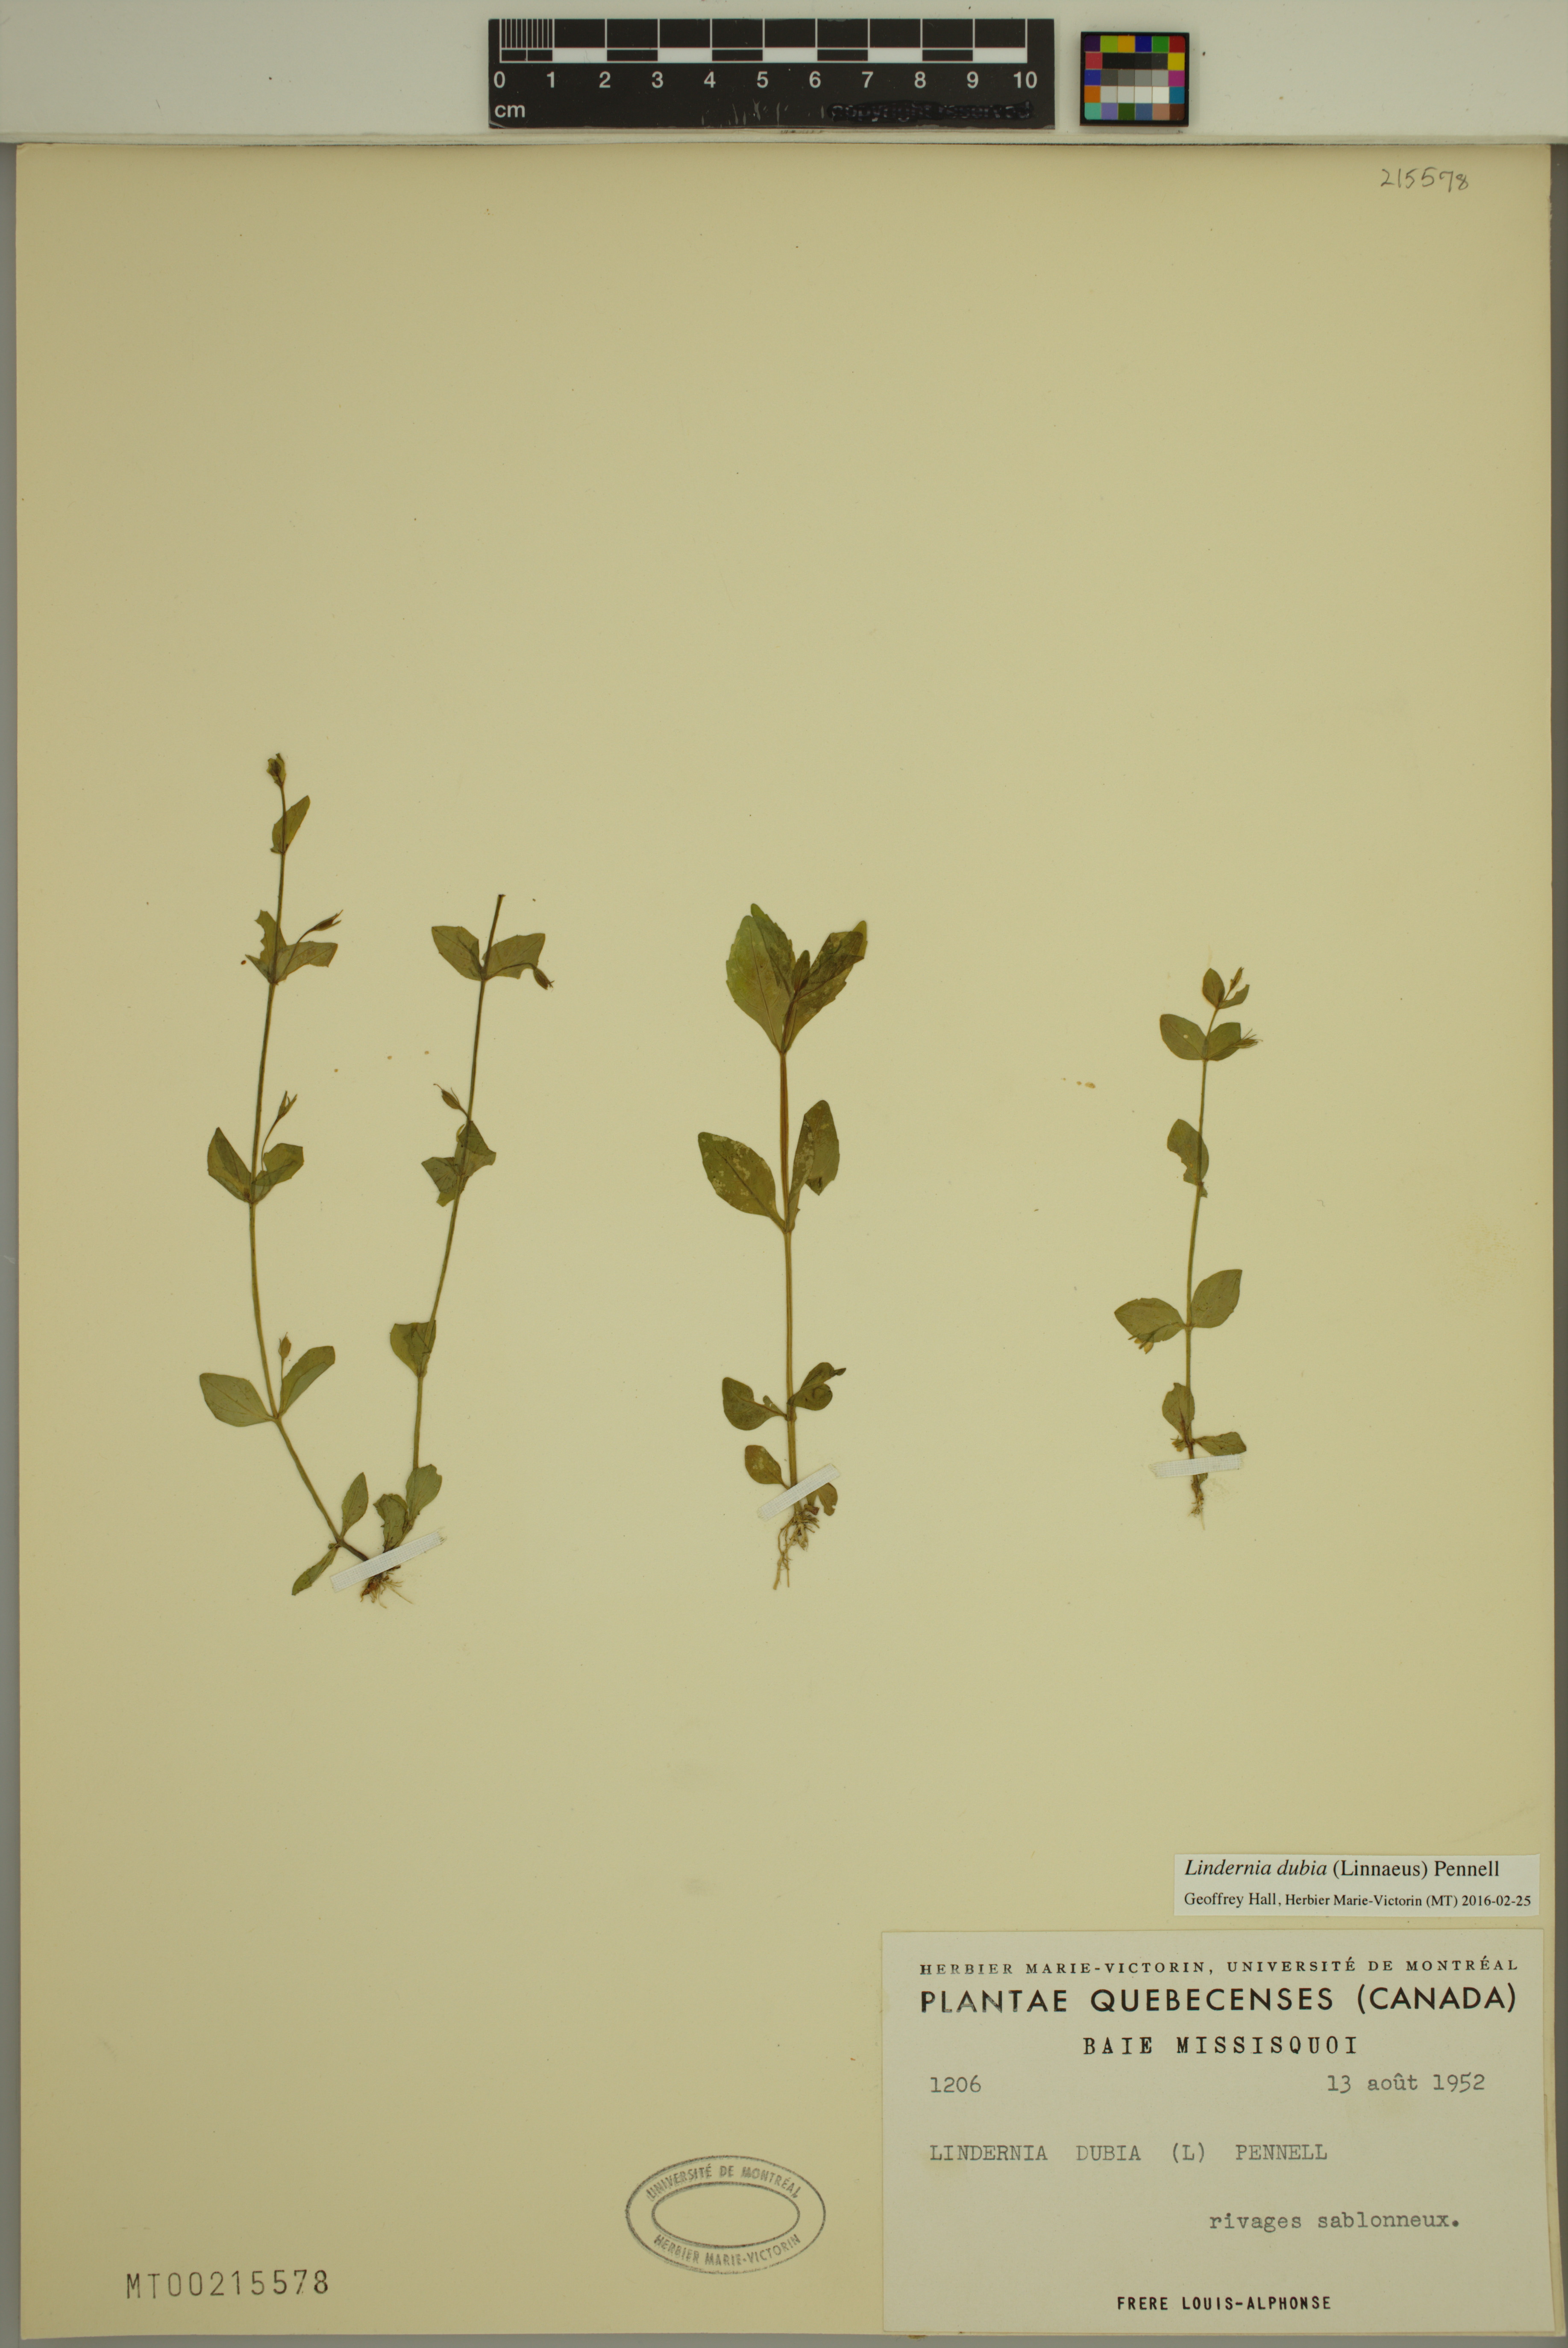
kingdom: Plantae
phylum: Tracheophyta
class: Magnoliopsida
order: Lamiales
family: Linderniaceae
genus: Lindernia
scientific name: Lindernia dubia
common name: Annual false pimpernel
